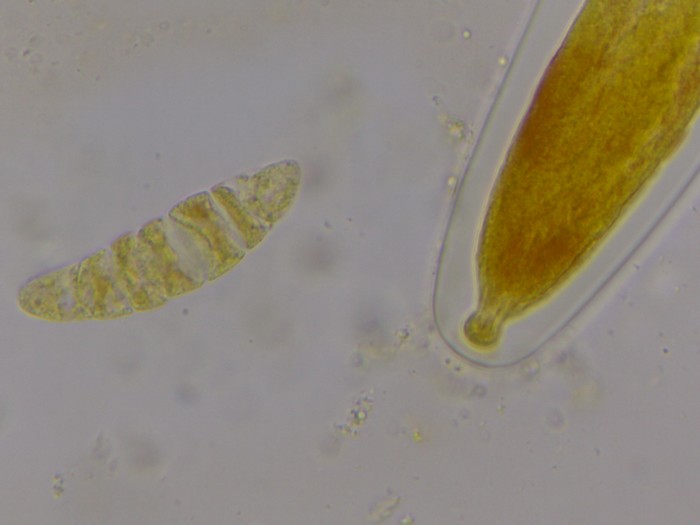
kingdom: Fungi
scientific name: Fungi
